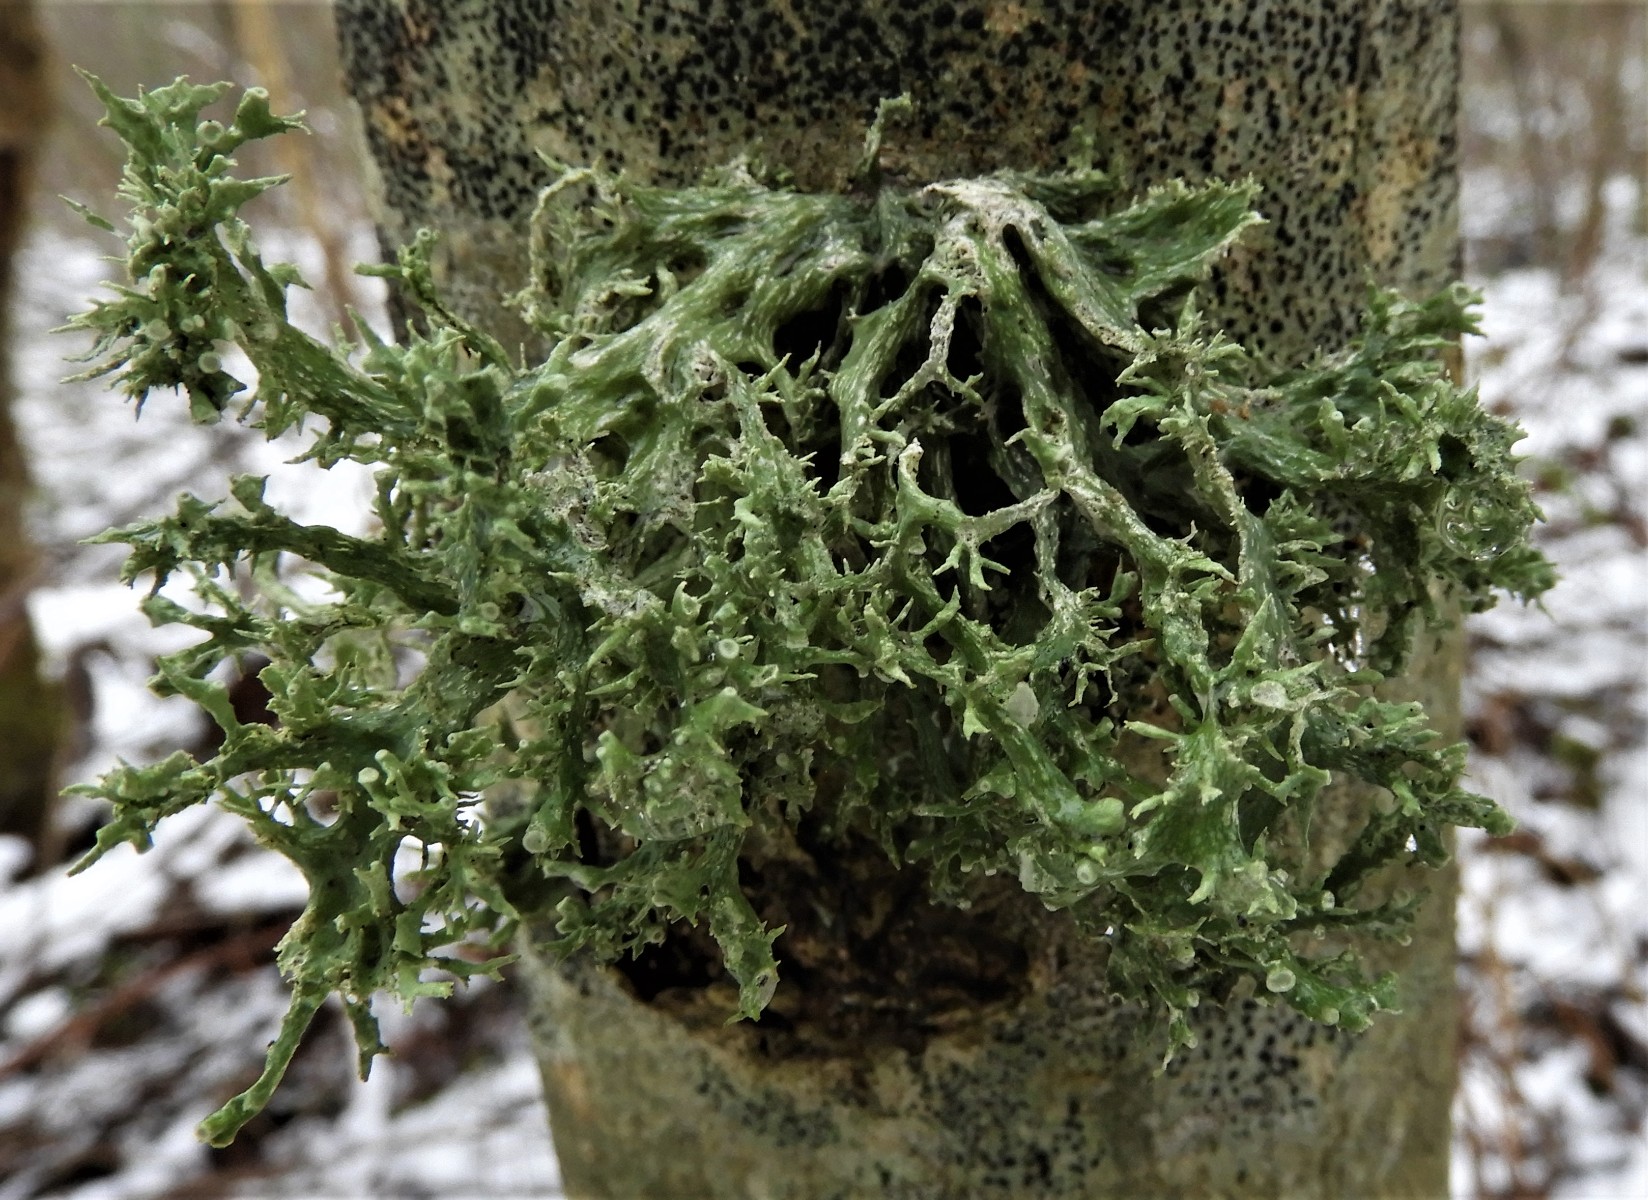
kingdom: Fungi
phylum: Ascomycota
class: Lecanoromycetes
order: Lecanorales
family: Ramalinaceae
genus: Ramalina
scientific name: Ramalina fastigiata
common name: tue-grenlav
